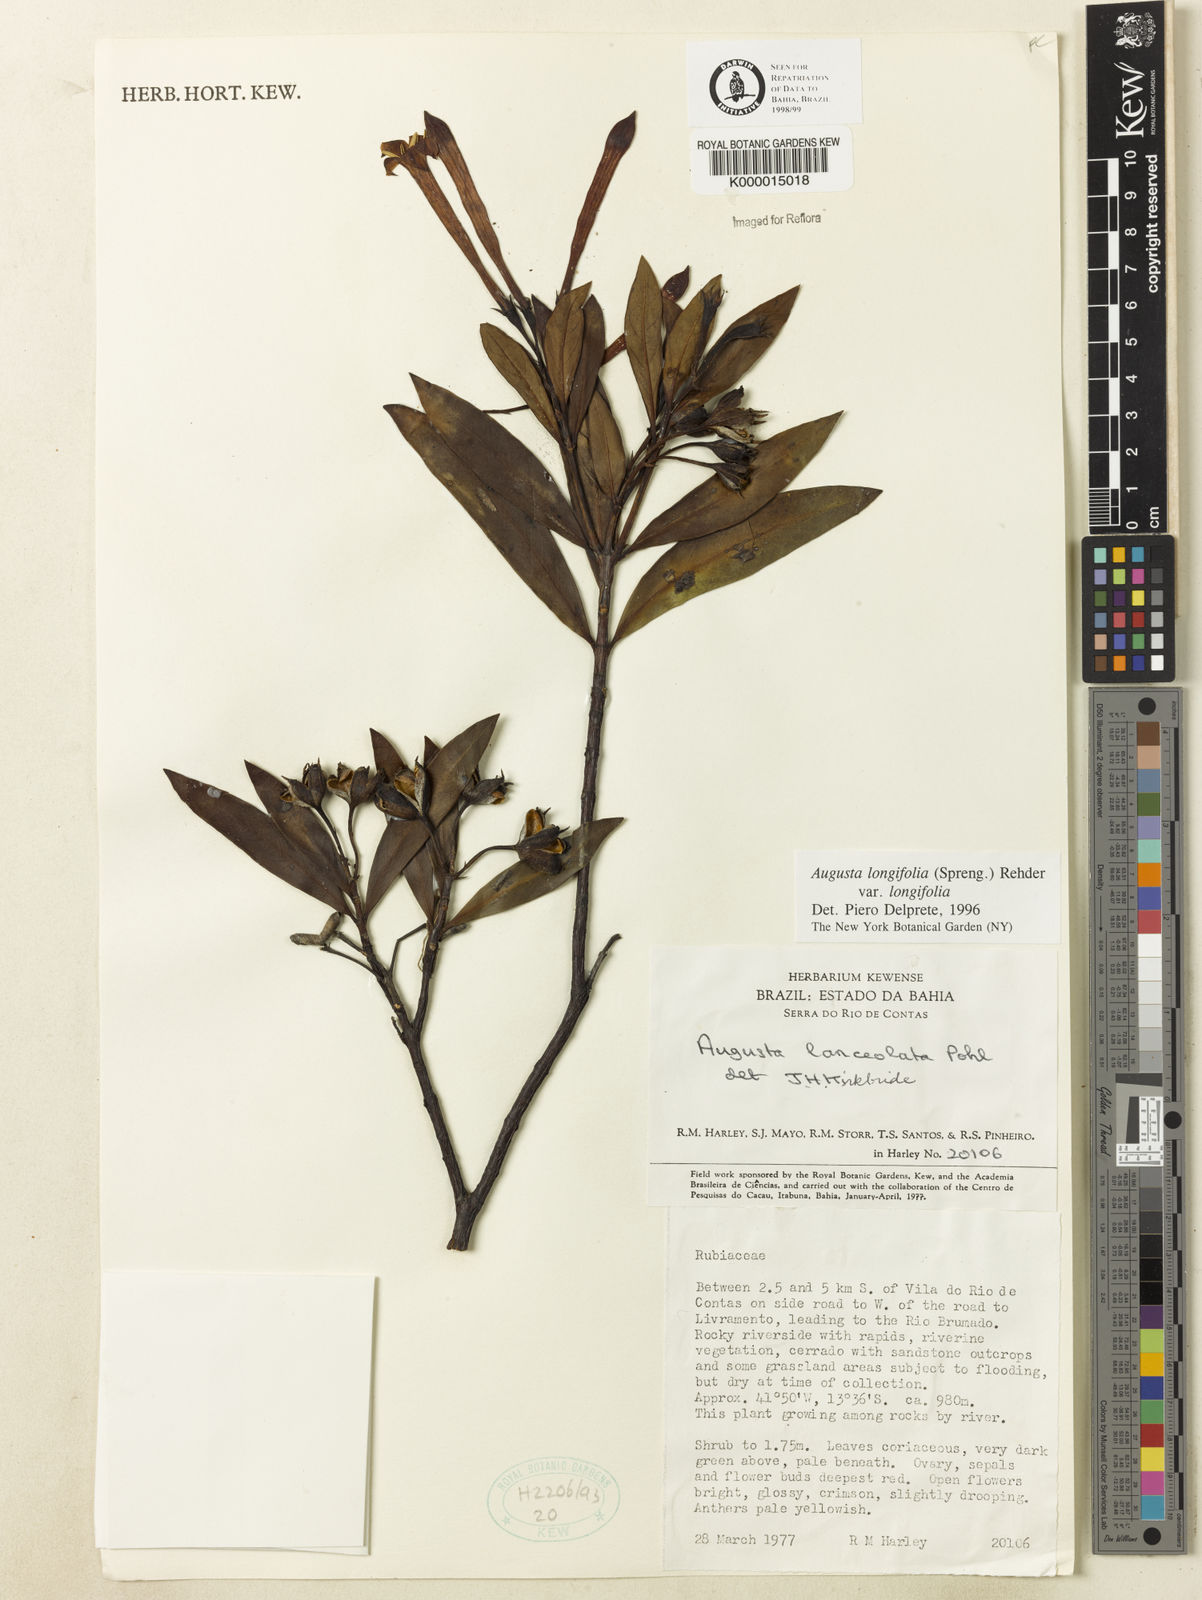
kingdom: Plantae
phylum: Tracheophyta
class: Magnoliopsida
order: Gentianales
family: Rubiaceae
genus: Augusta
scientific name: Augusta longifolia
